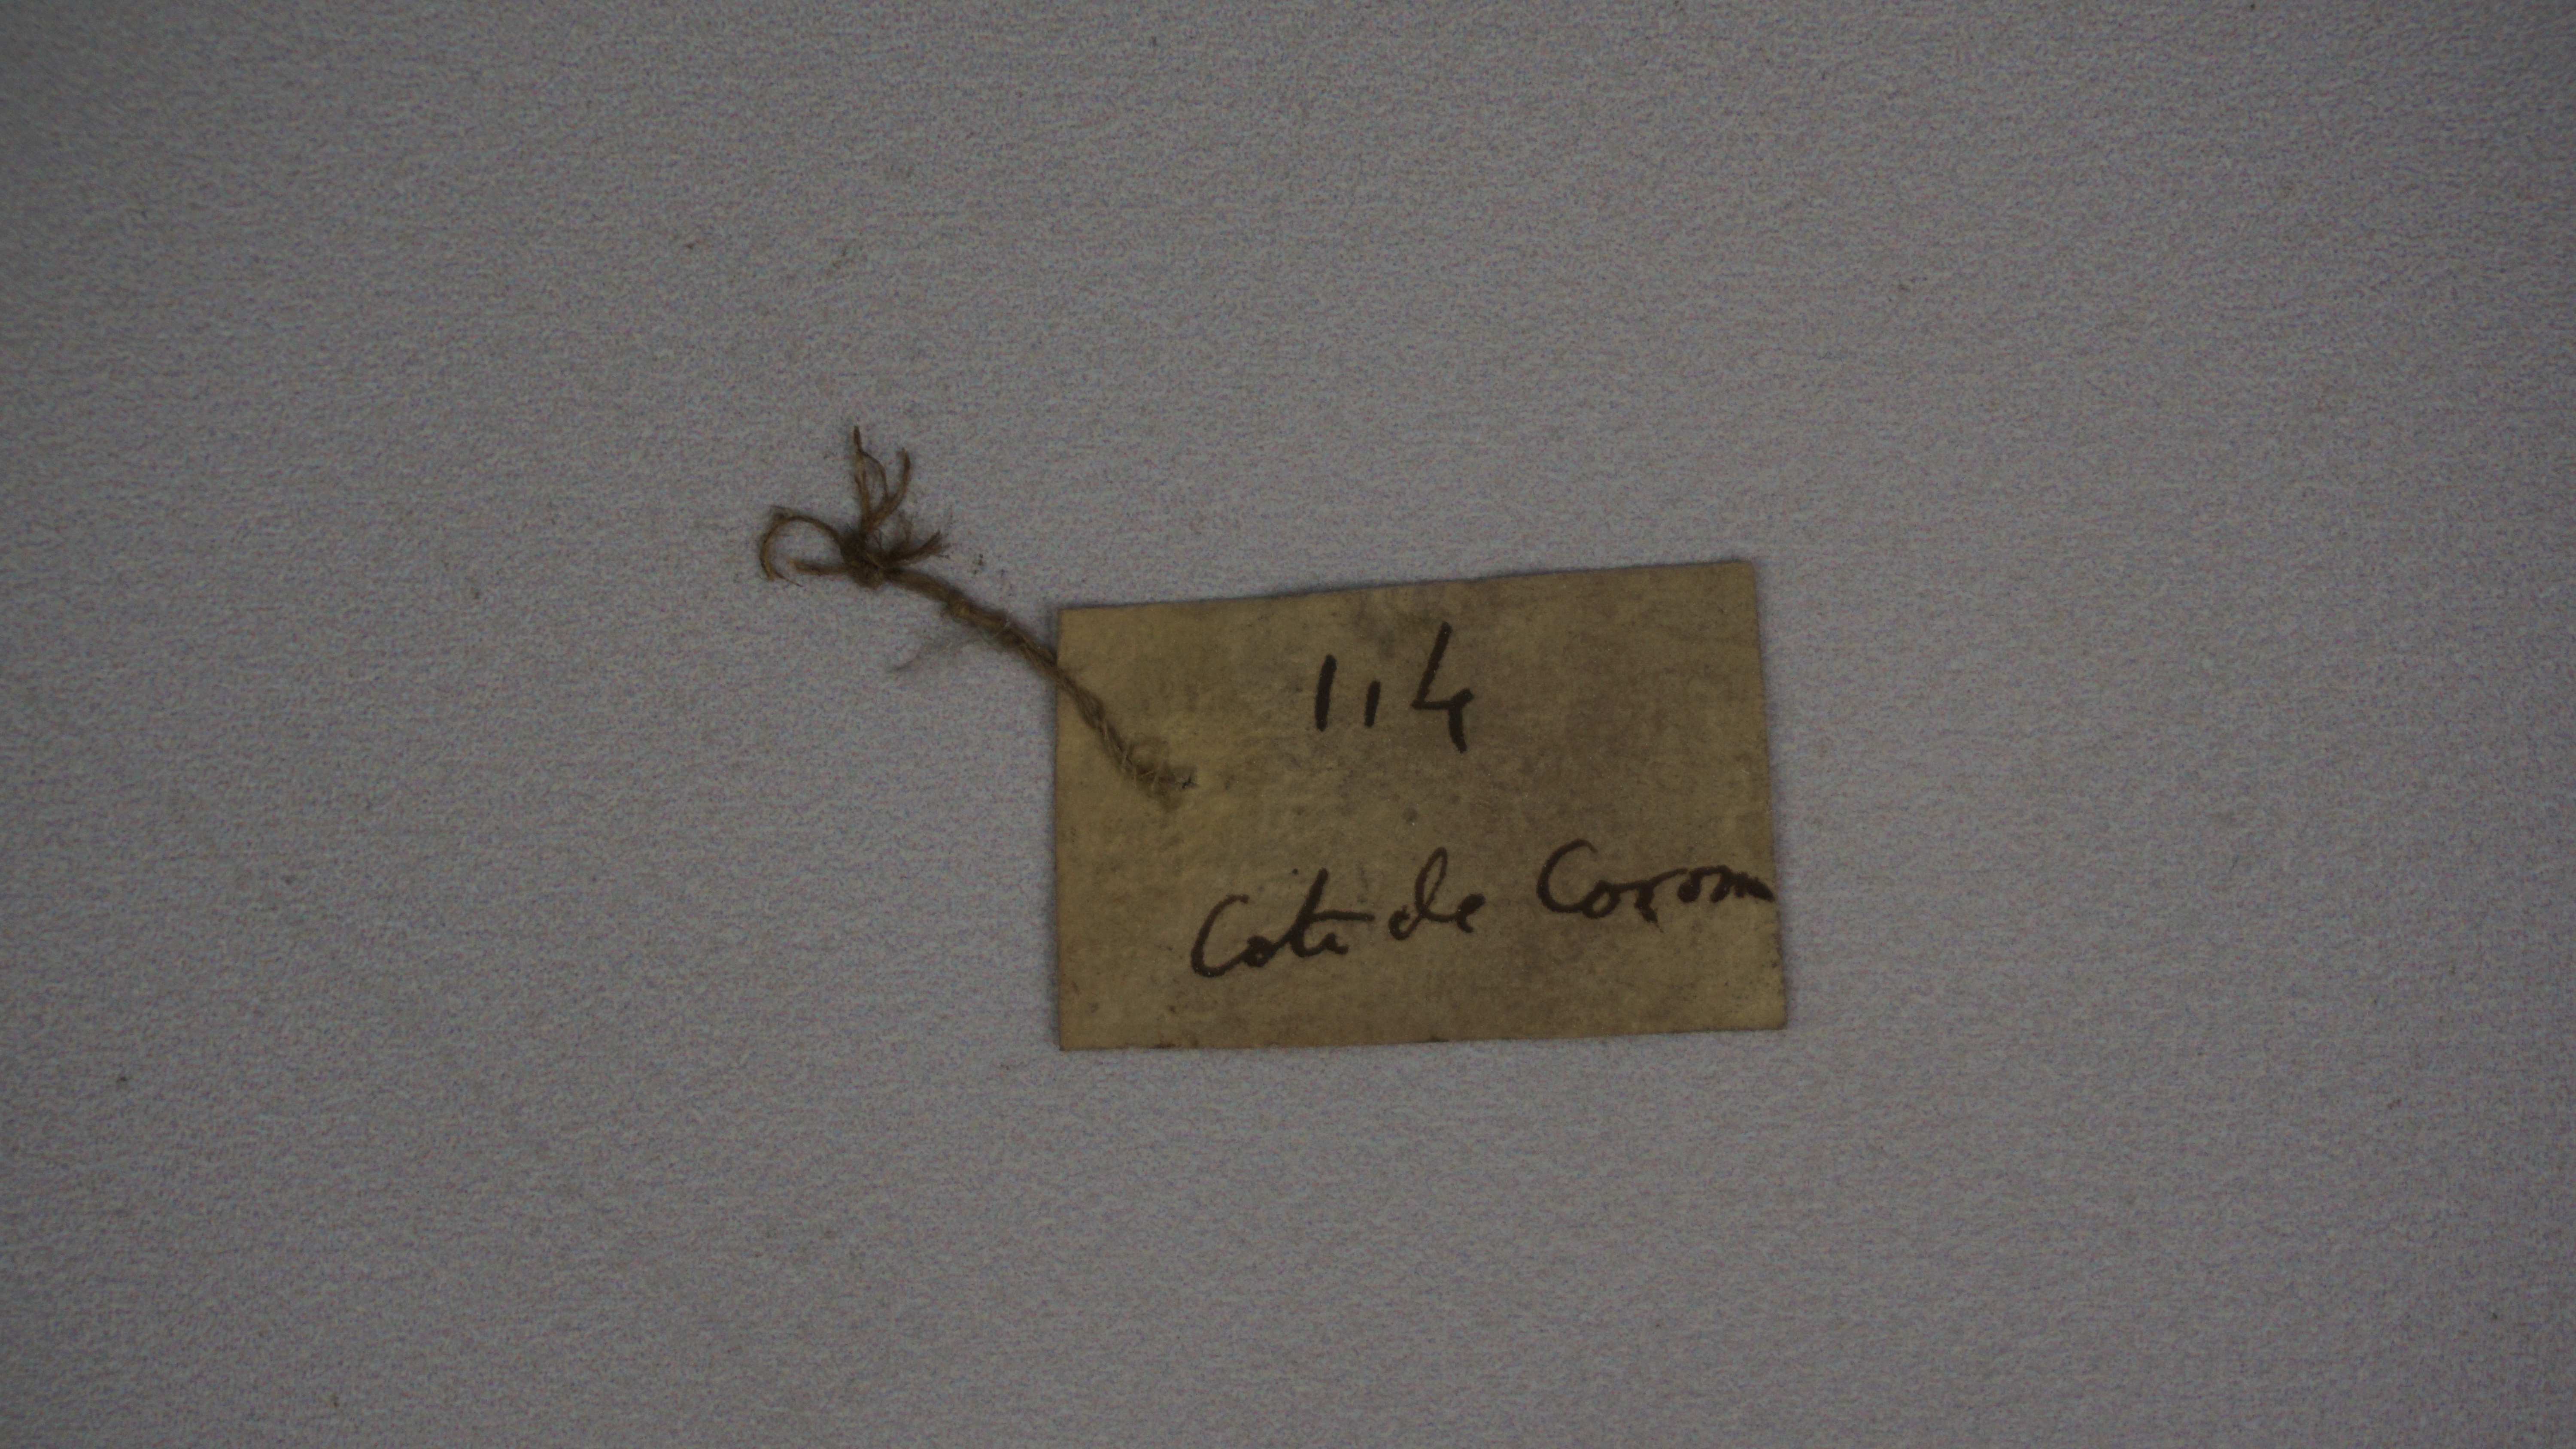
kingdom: Animalia
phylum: Chordata
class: Aves
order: Charadriiformes
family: Laridae
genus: Chlidonias
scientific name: Chlidonias hybrida
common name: Whiskered tern
